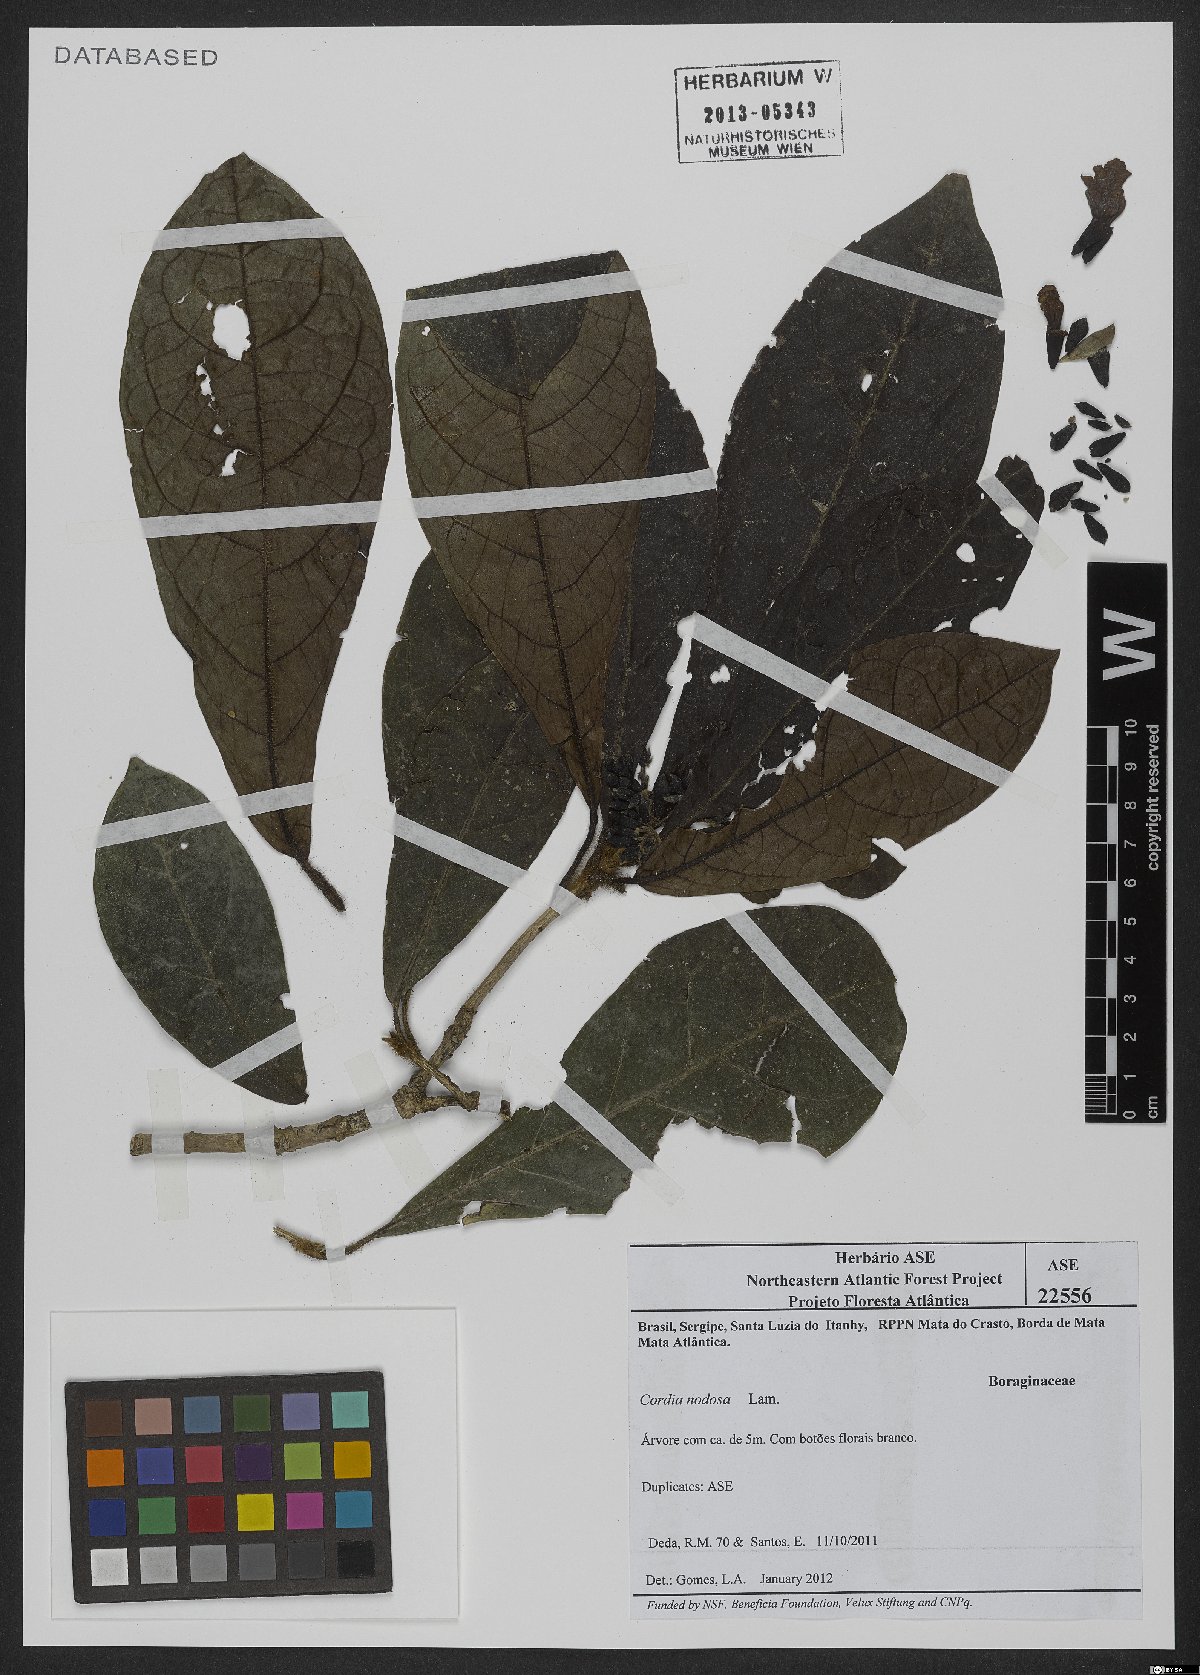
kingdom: Plantae
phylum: Tracheophyta
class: Magnoliopsida
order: Boraginales
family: Cordiaceae
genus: Cordia
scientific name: Cordia nodosa
